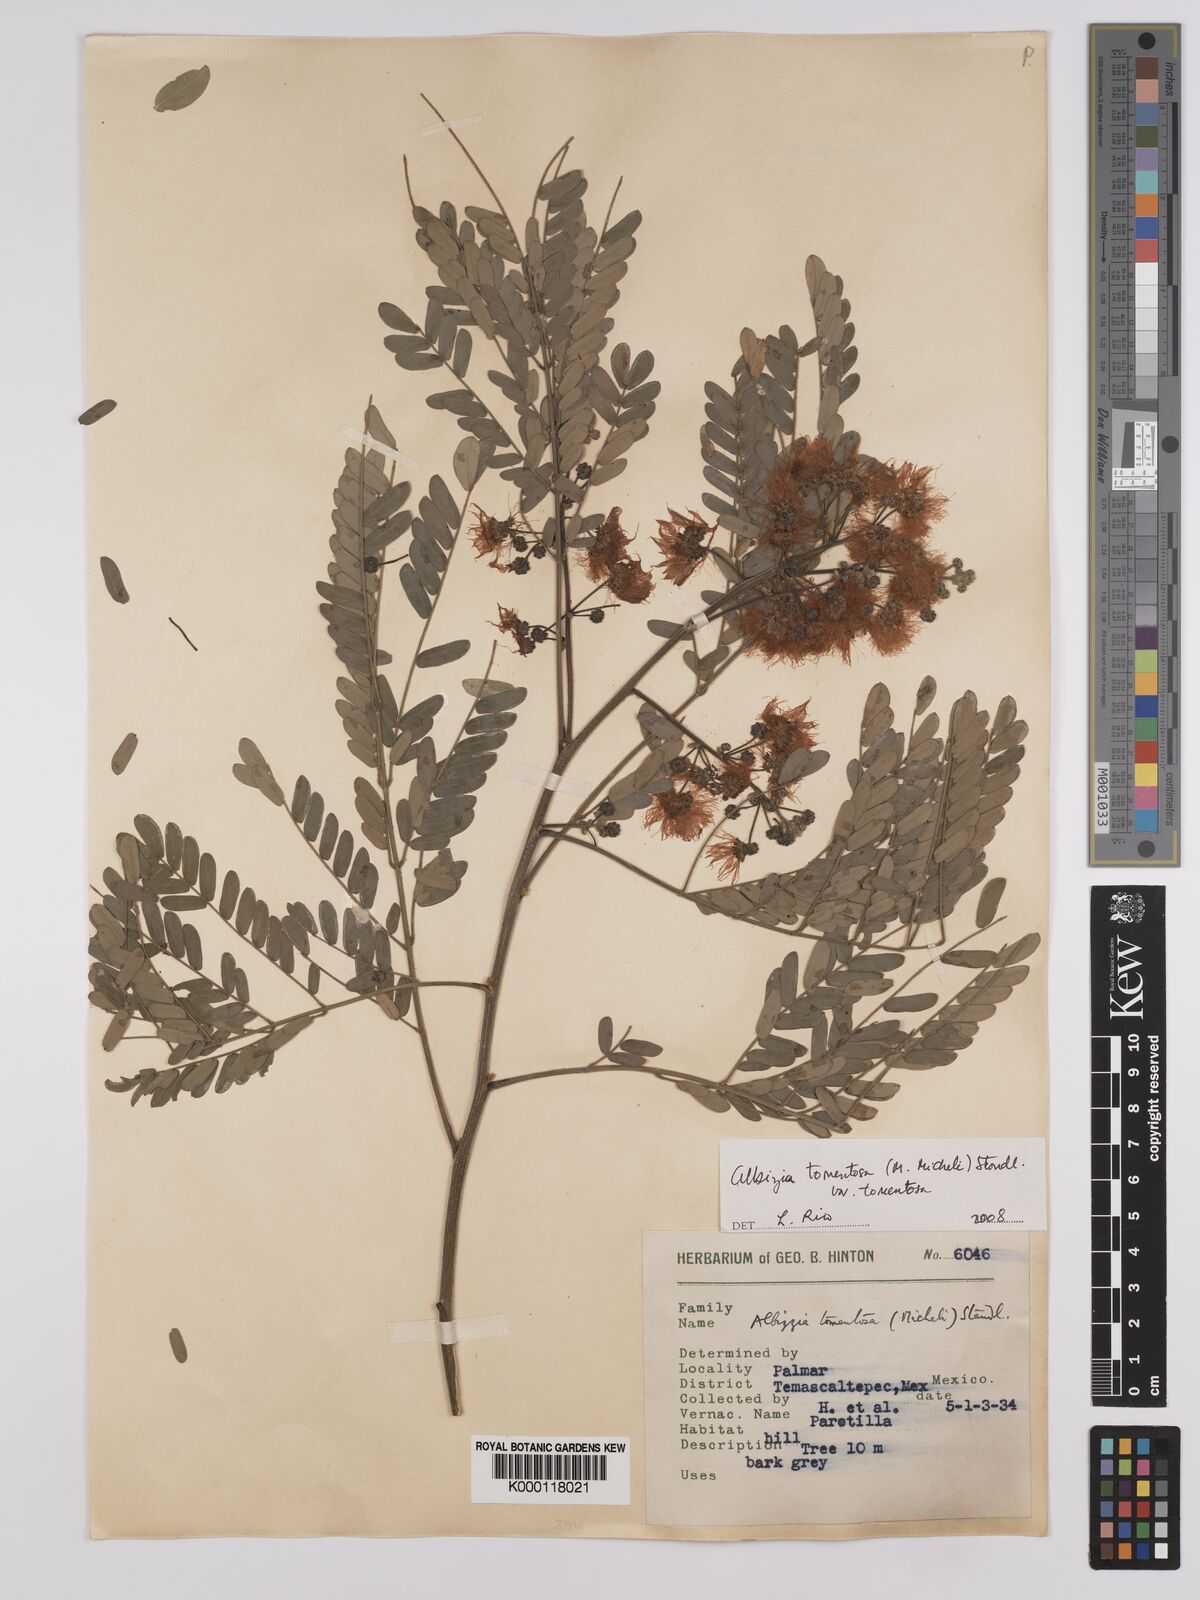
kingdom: Plantae
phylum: Tracheophyta
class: Magnoliopsida
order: Fabales
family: Fabaceae
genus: Albizia
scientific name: Albizia tomentosa
